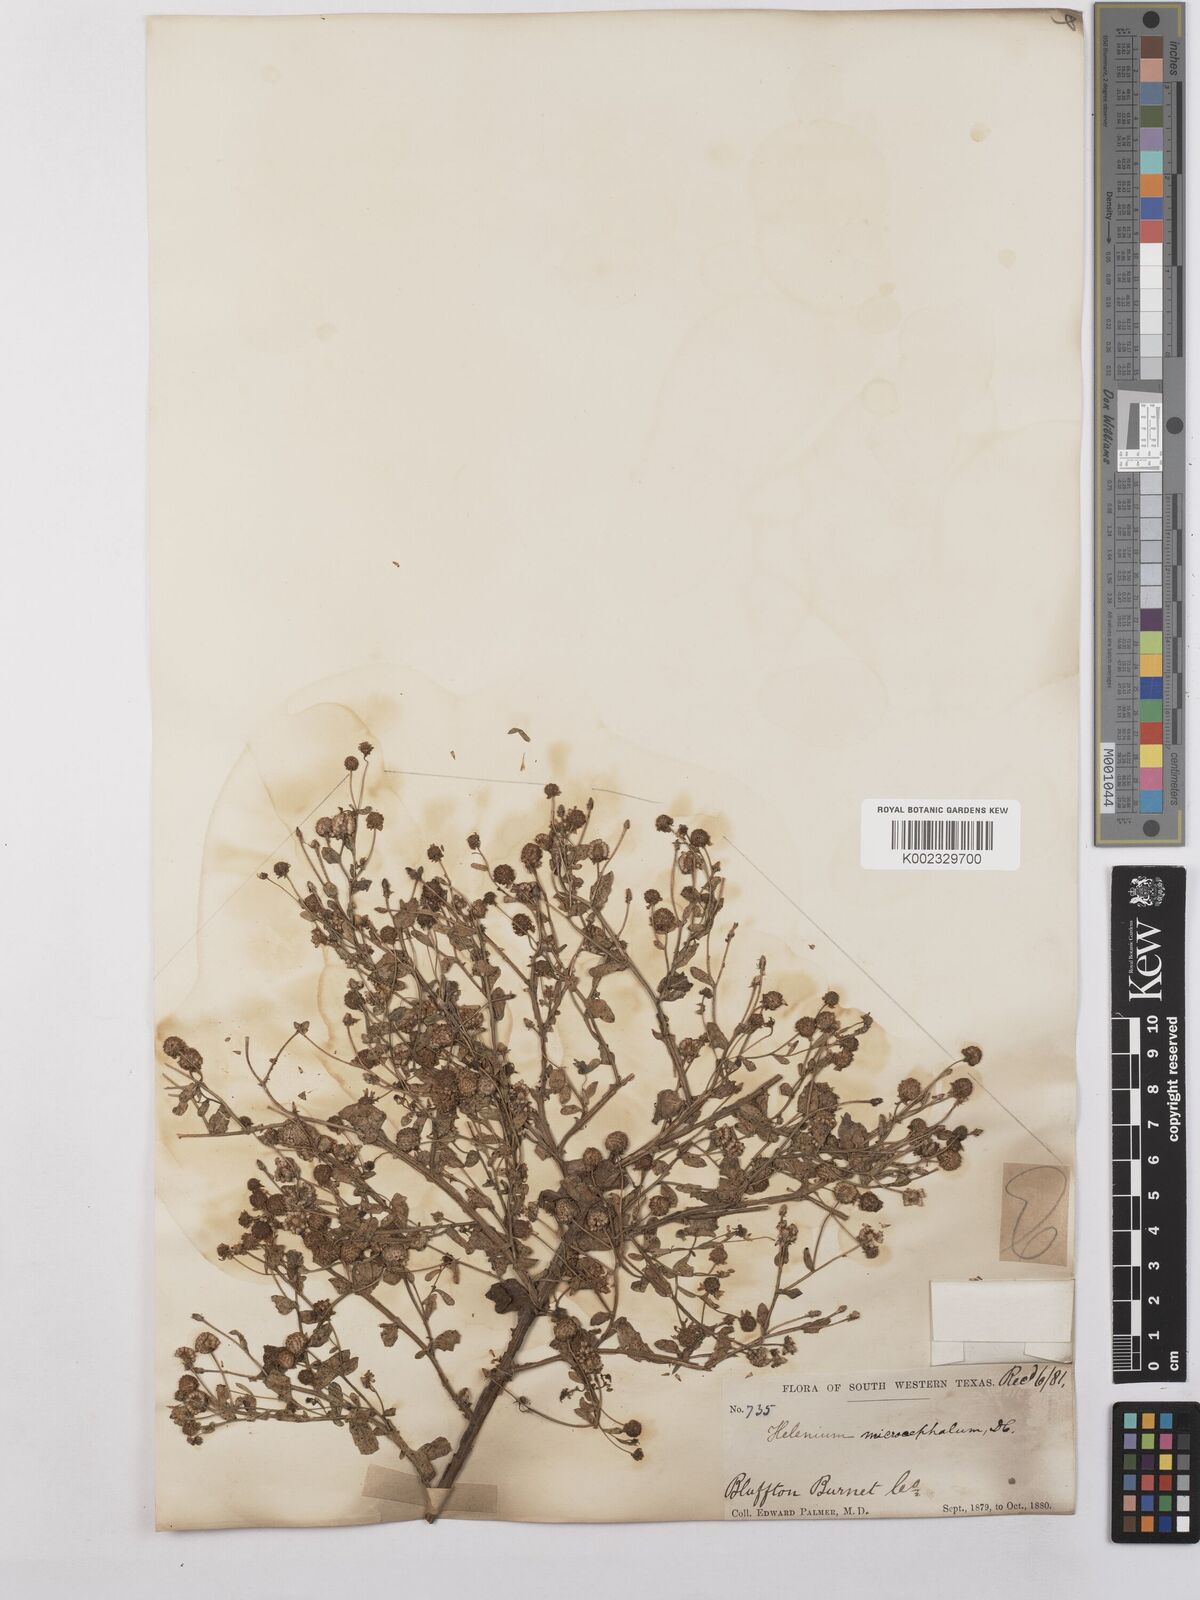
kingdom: Plantae
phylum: Tracheophyta
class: Magnoliopsida
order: Asterales
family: Asteraceae
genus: Helenium
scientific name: Helenium microcephalum
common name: Smallhead sneezeweed
